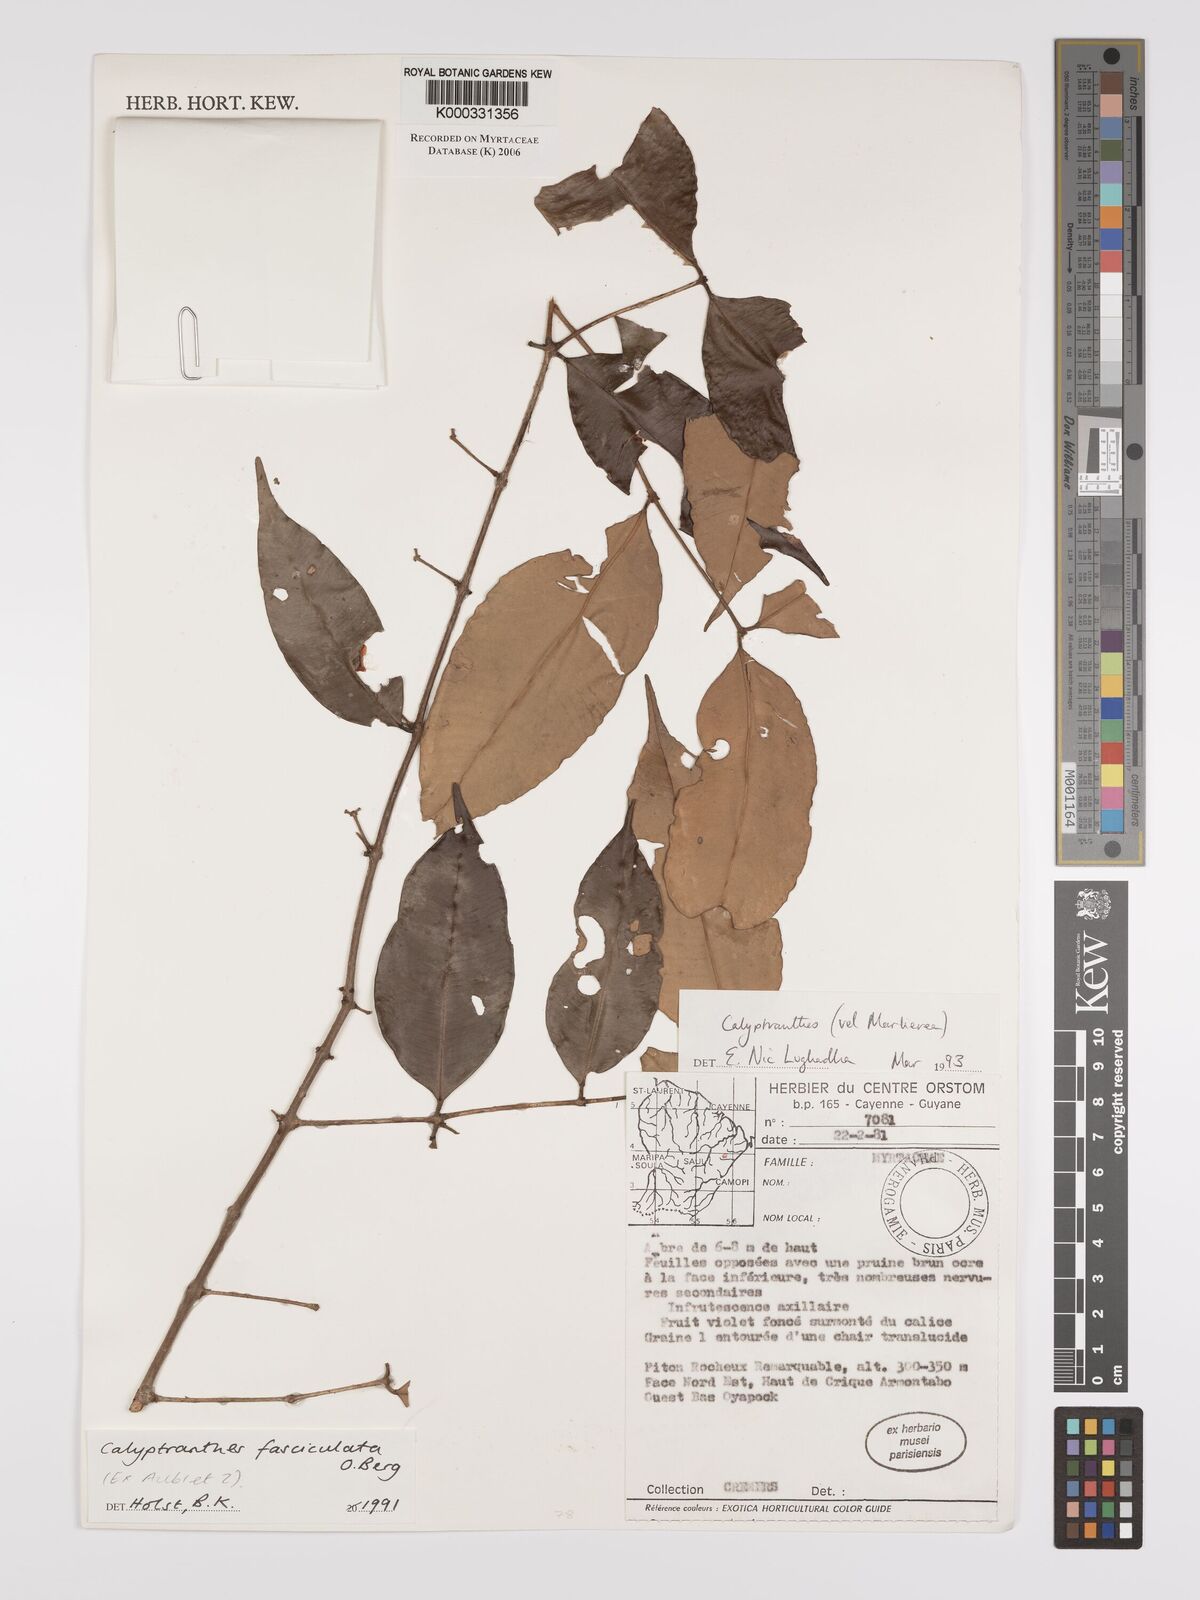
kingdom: Plantae
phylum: Tracheophyta
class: Magnoliopsida
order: Myrtales
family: Myrtaceae
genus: Myrcia
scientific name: Myrcia fasciculata
